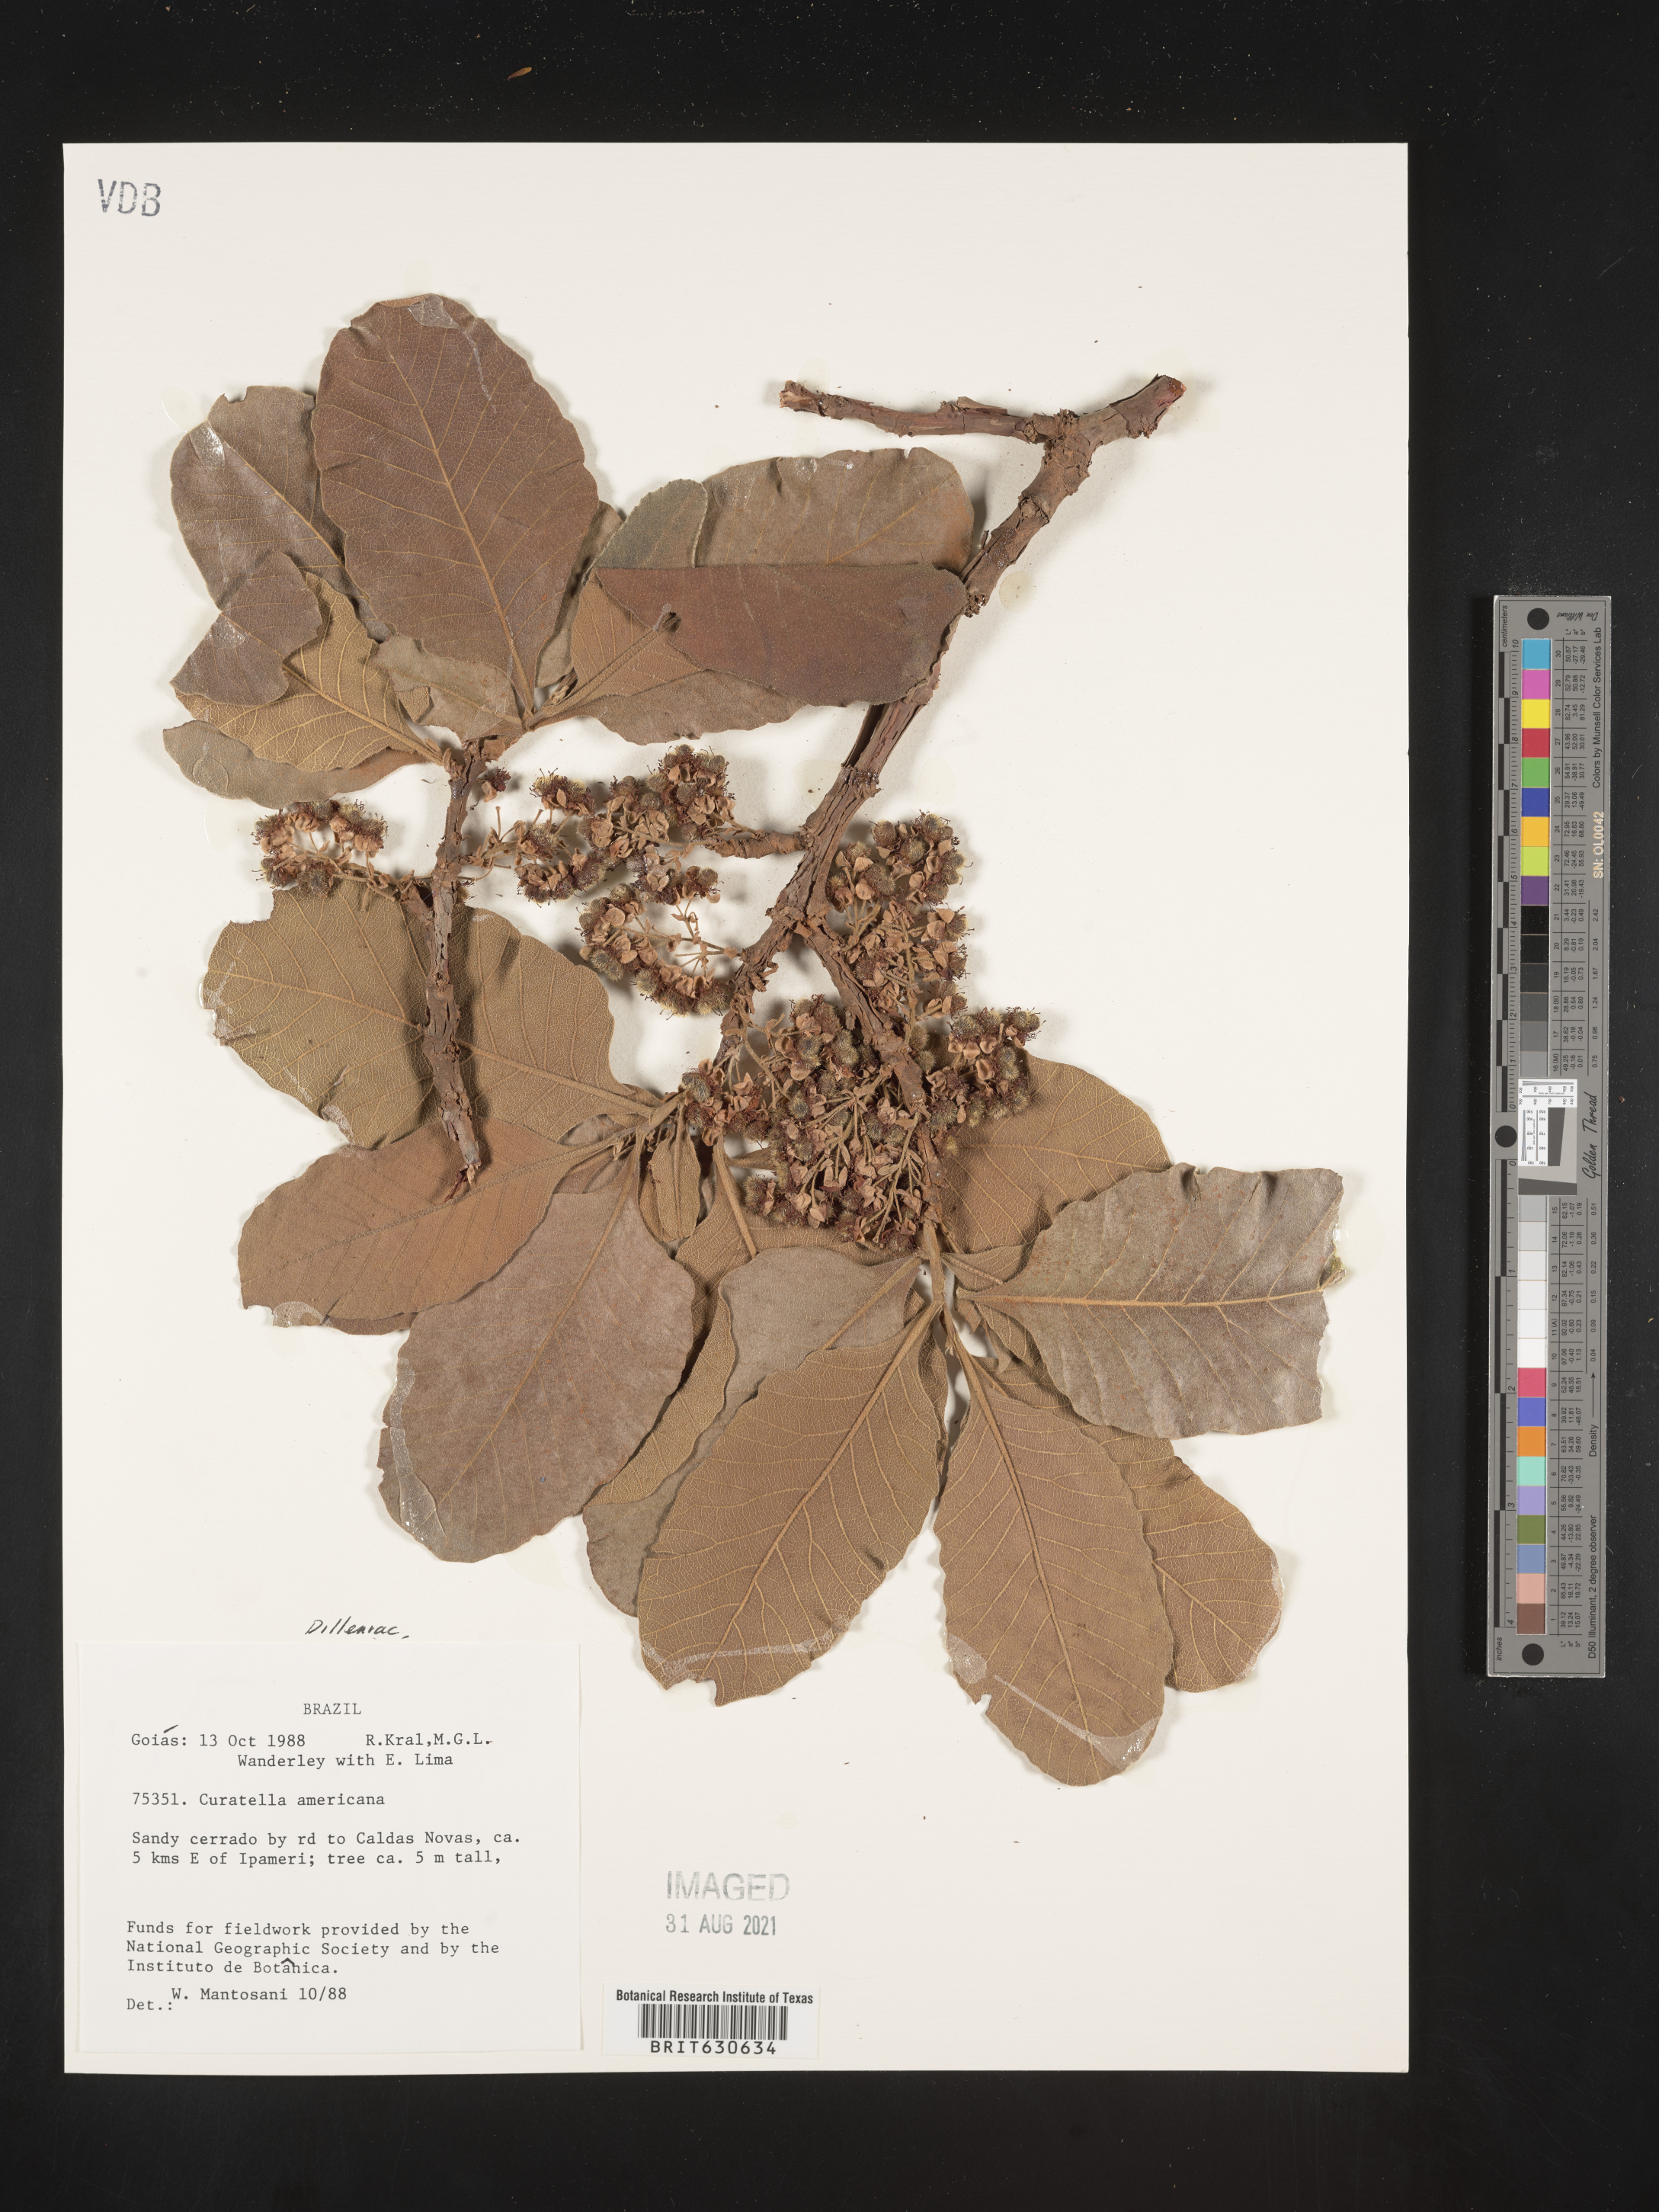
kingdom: Plantae
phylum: Tracheophyta
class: Magnoliopsida
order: Dilleniales
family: Dilleniaceae
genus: Curatella
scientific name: Curatella
